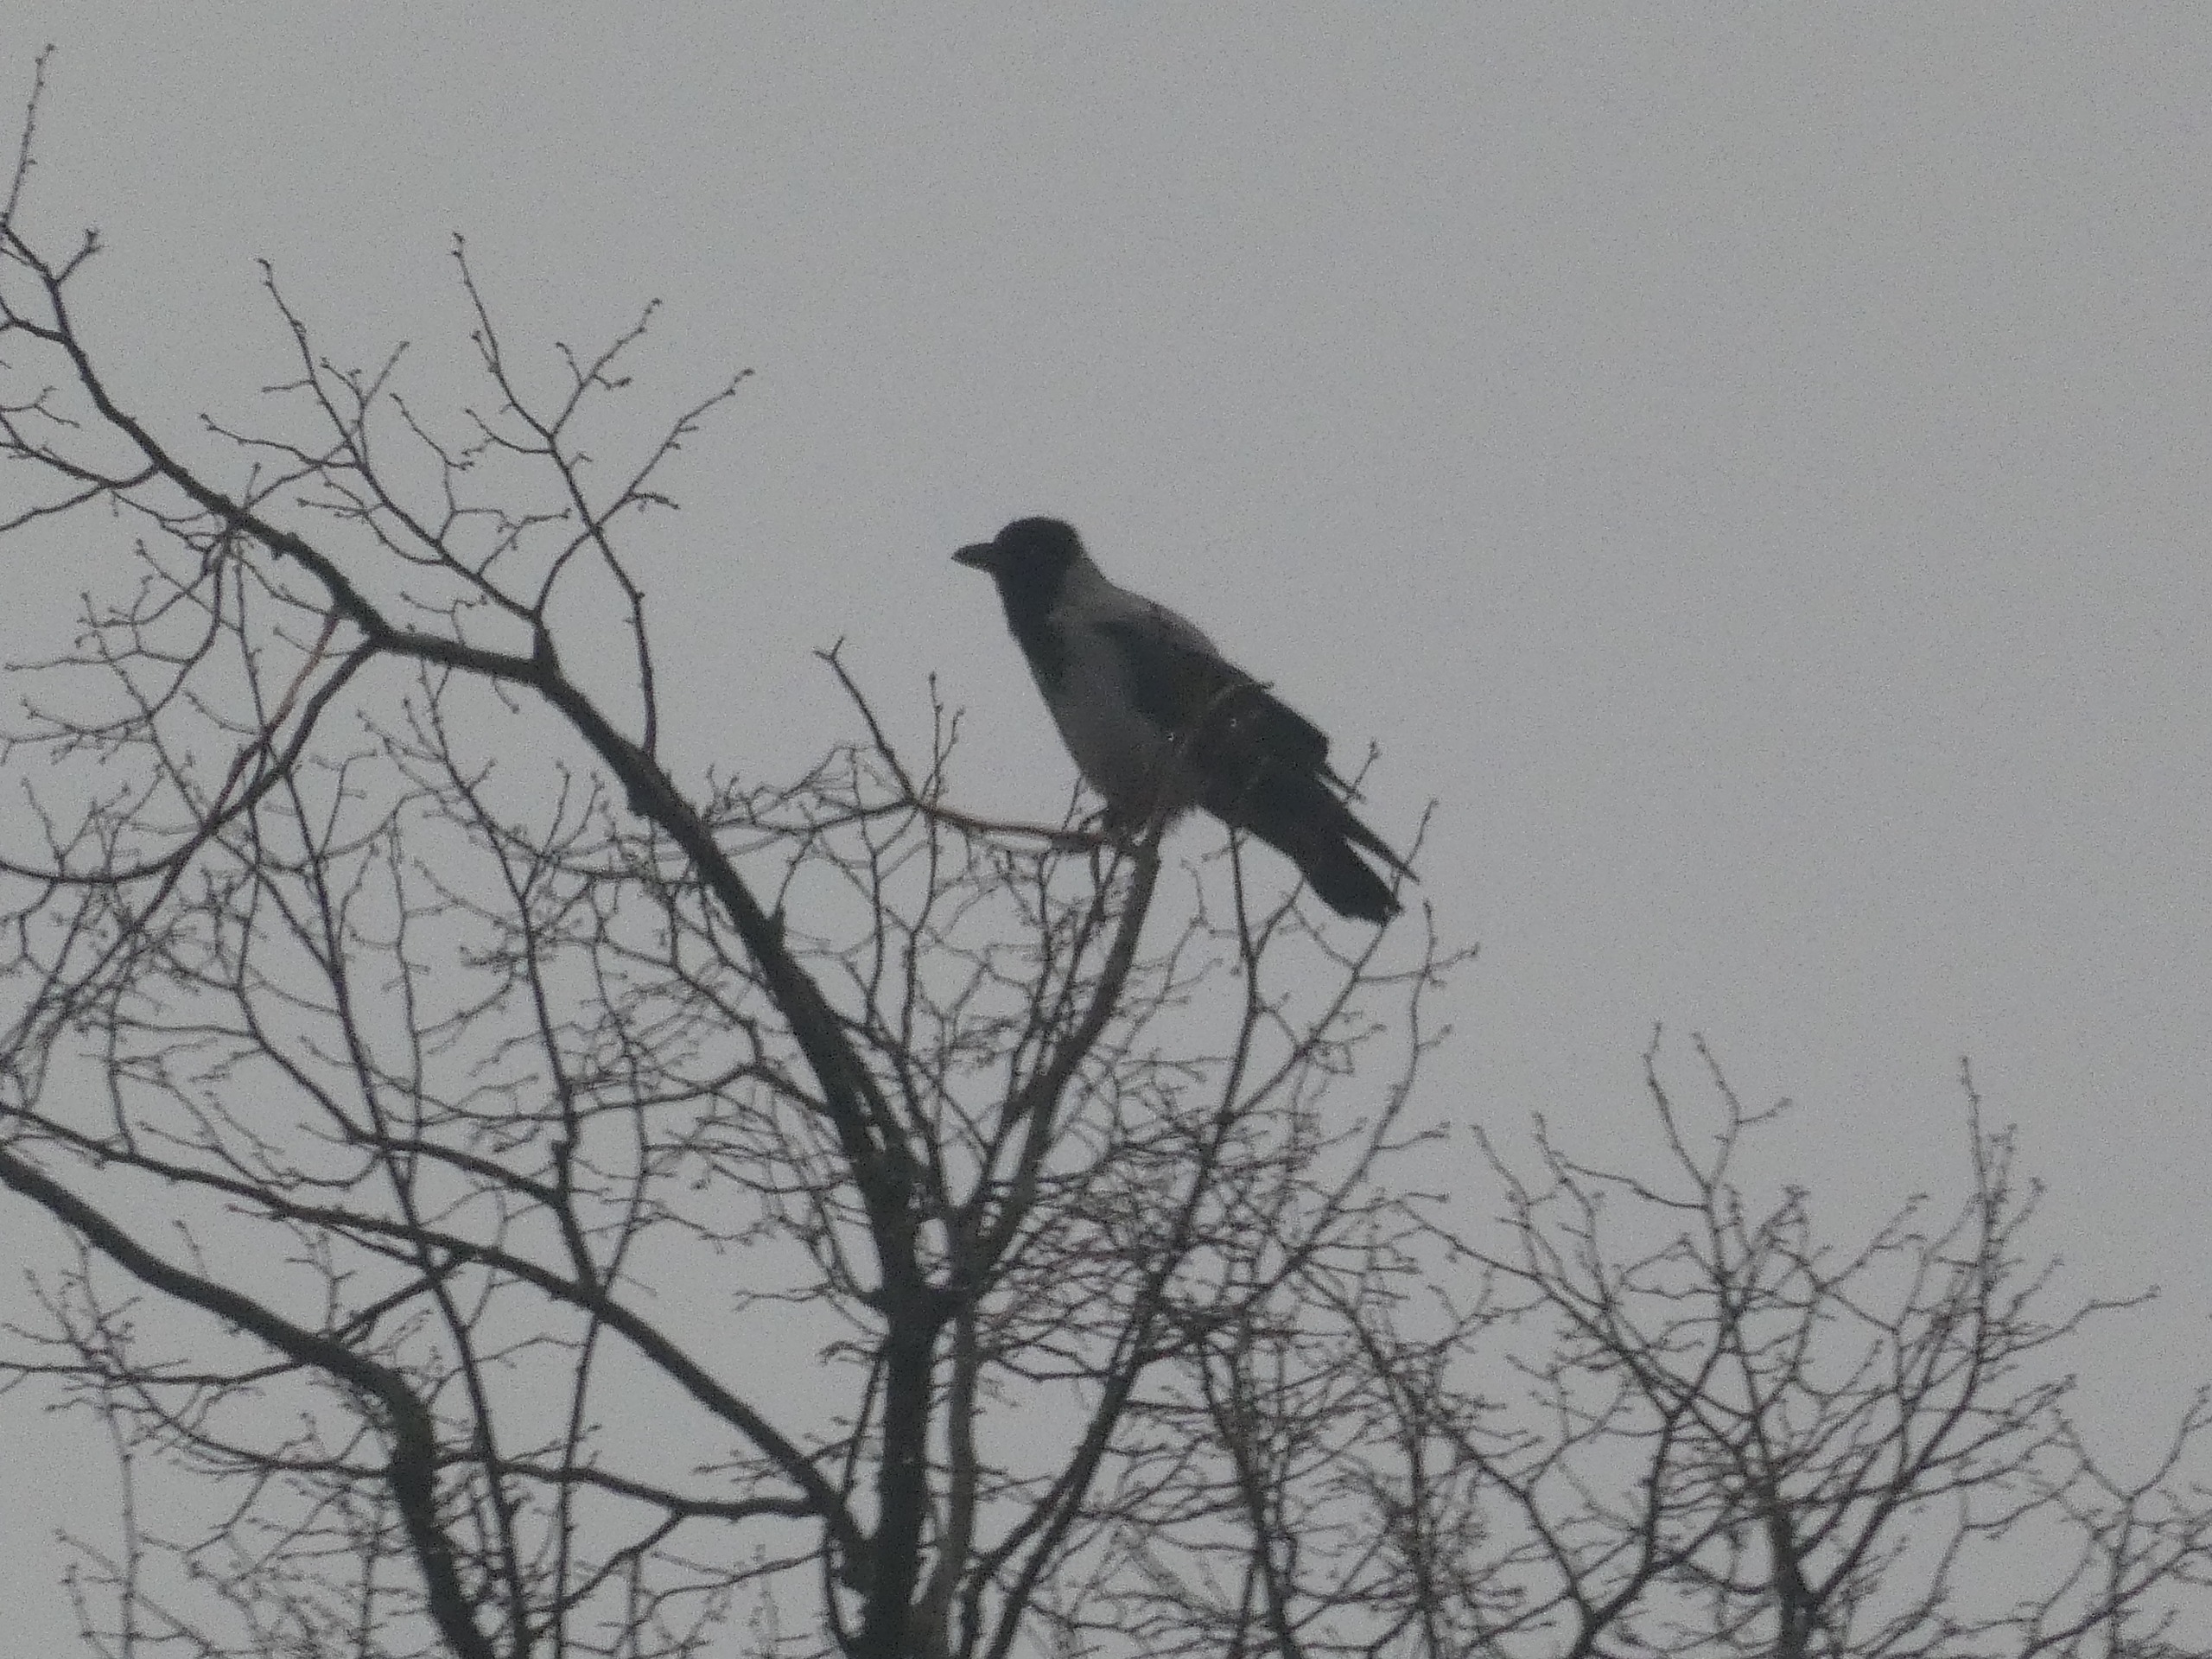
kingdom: Animalia
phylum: Chordata
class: Aves
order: Passeriformes
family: Corvidae
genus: Corvus
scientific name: Corvus cornix
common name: Gråkrage
